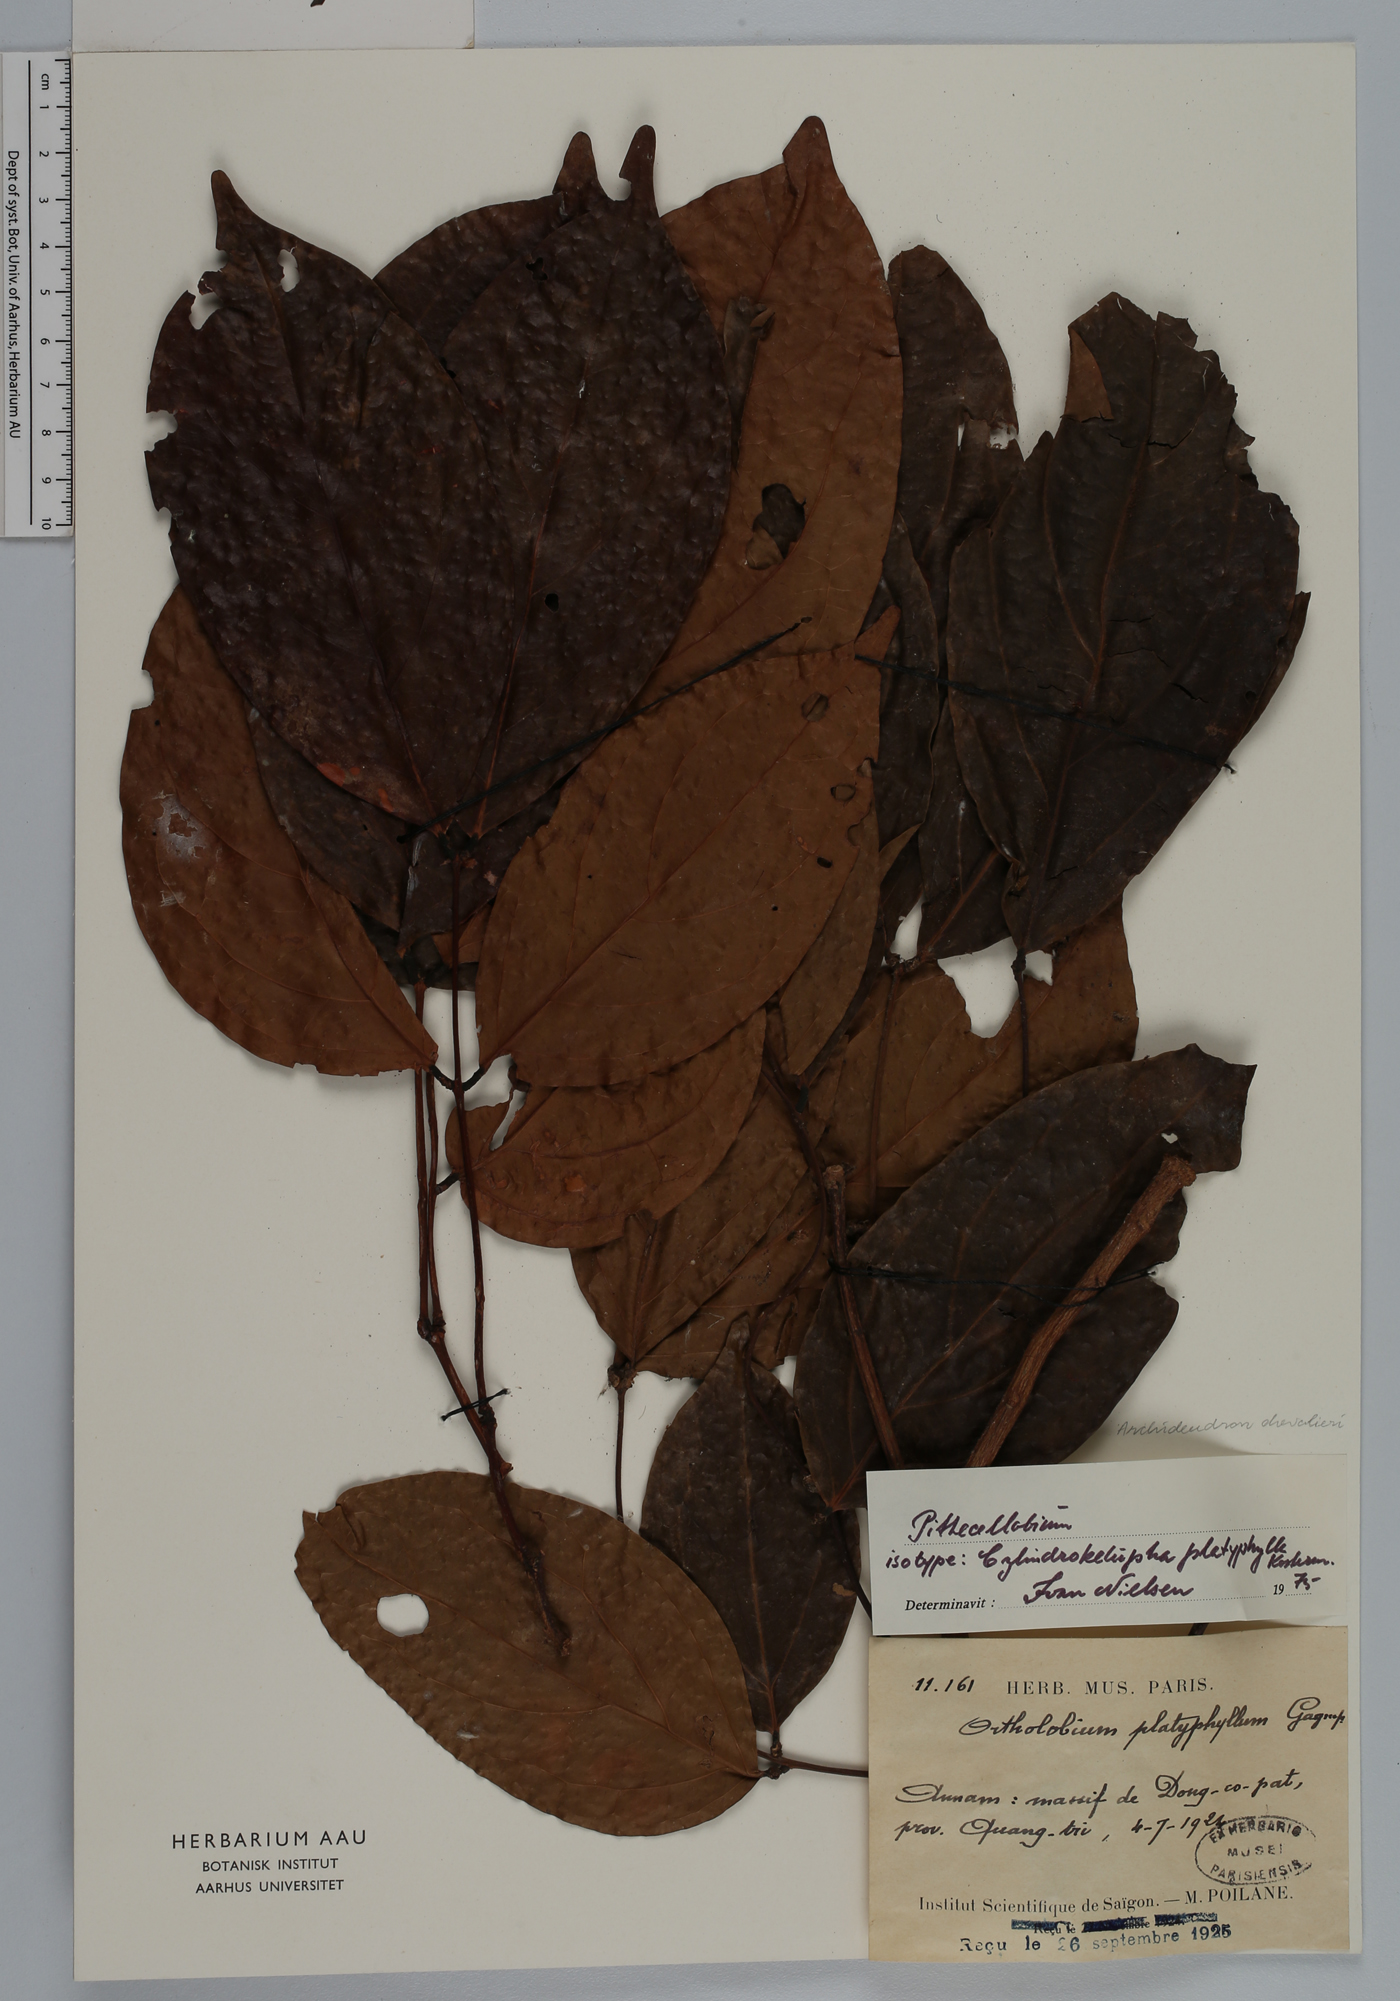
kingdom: Plantae
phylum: Tracheophyta
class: Magnoliopsida
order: Fabales
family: Fabaceae
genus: Archidendron
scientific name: Archidendron chevalieri
